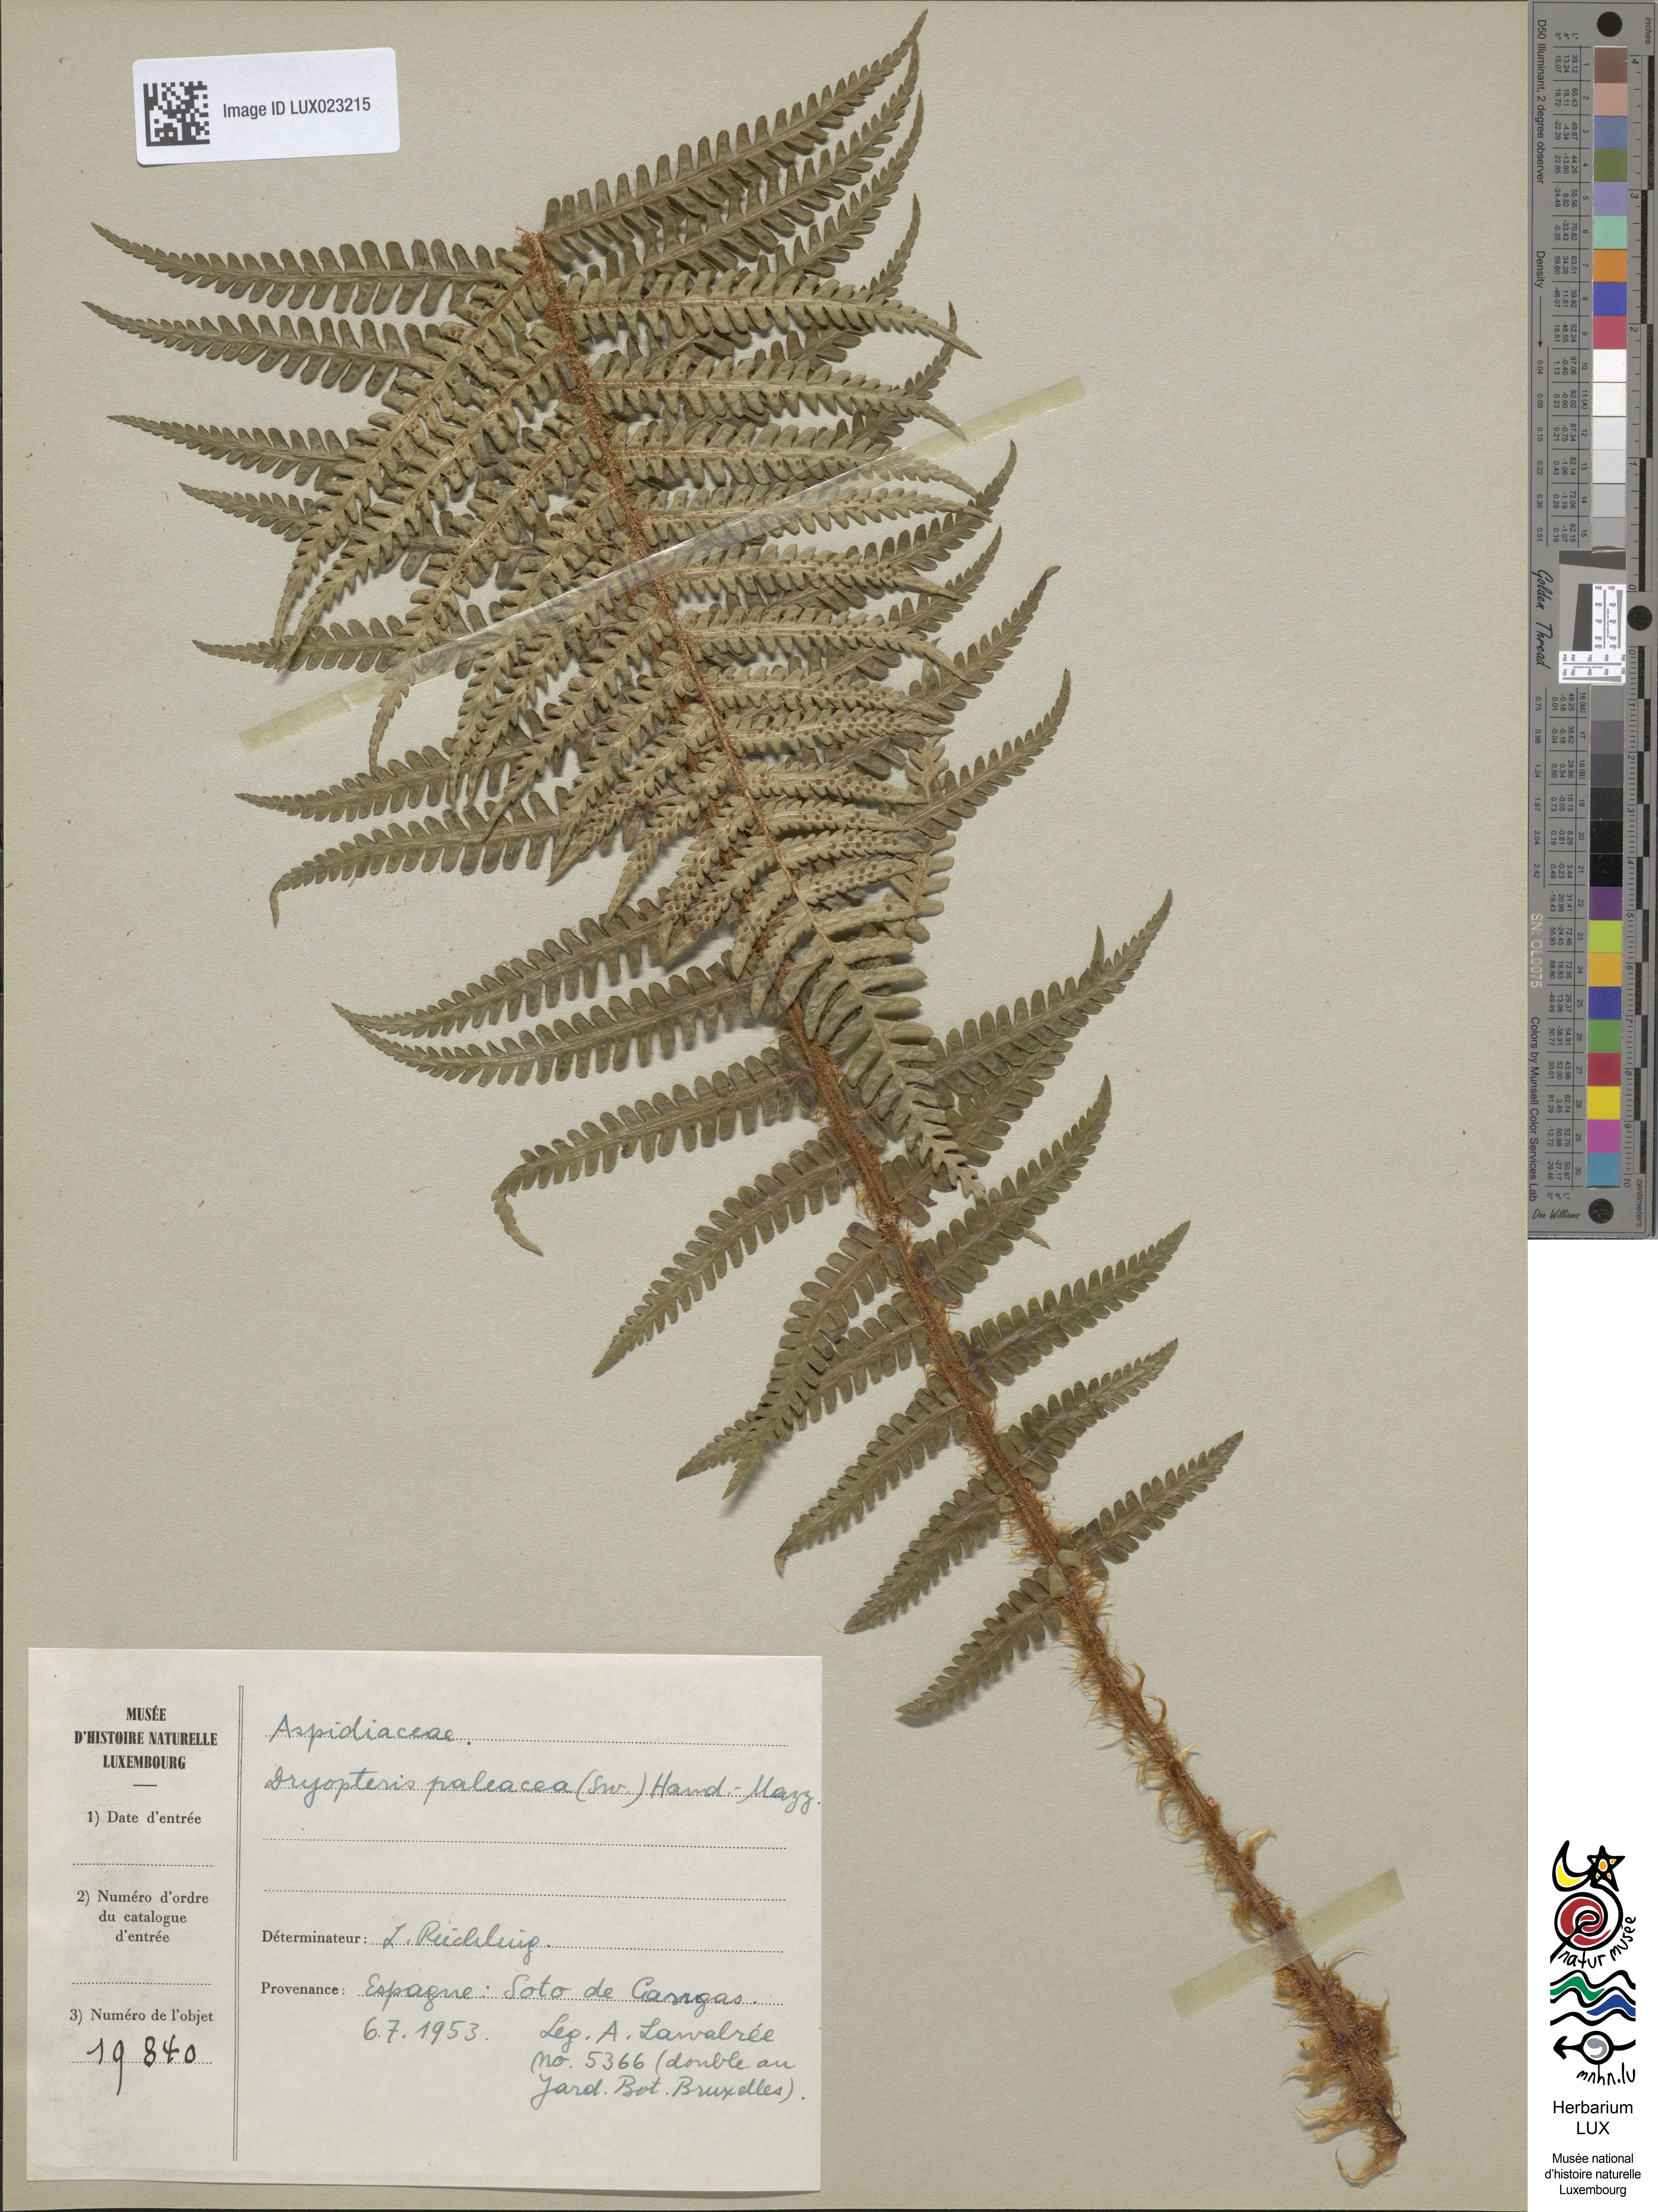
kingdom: Plantae
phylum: Tracheophyta
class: Polypodiopsida
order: Polypodiales
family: Dryopteridaceae
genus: Dryopteris
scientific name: Dryopteris paleacea
